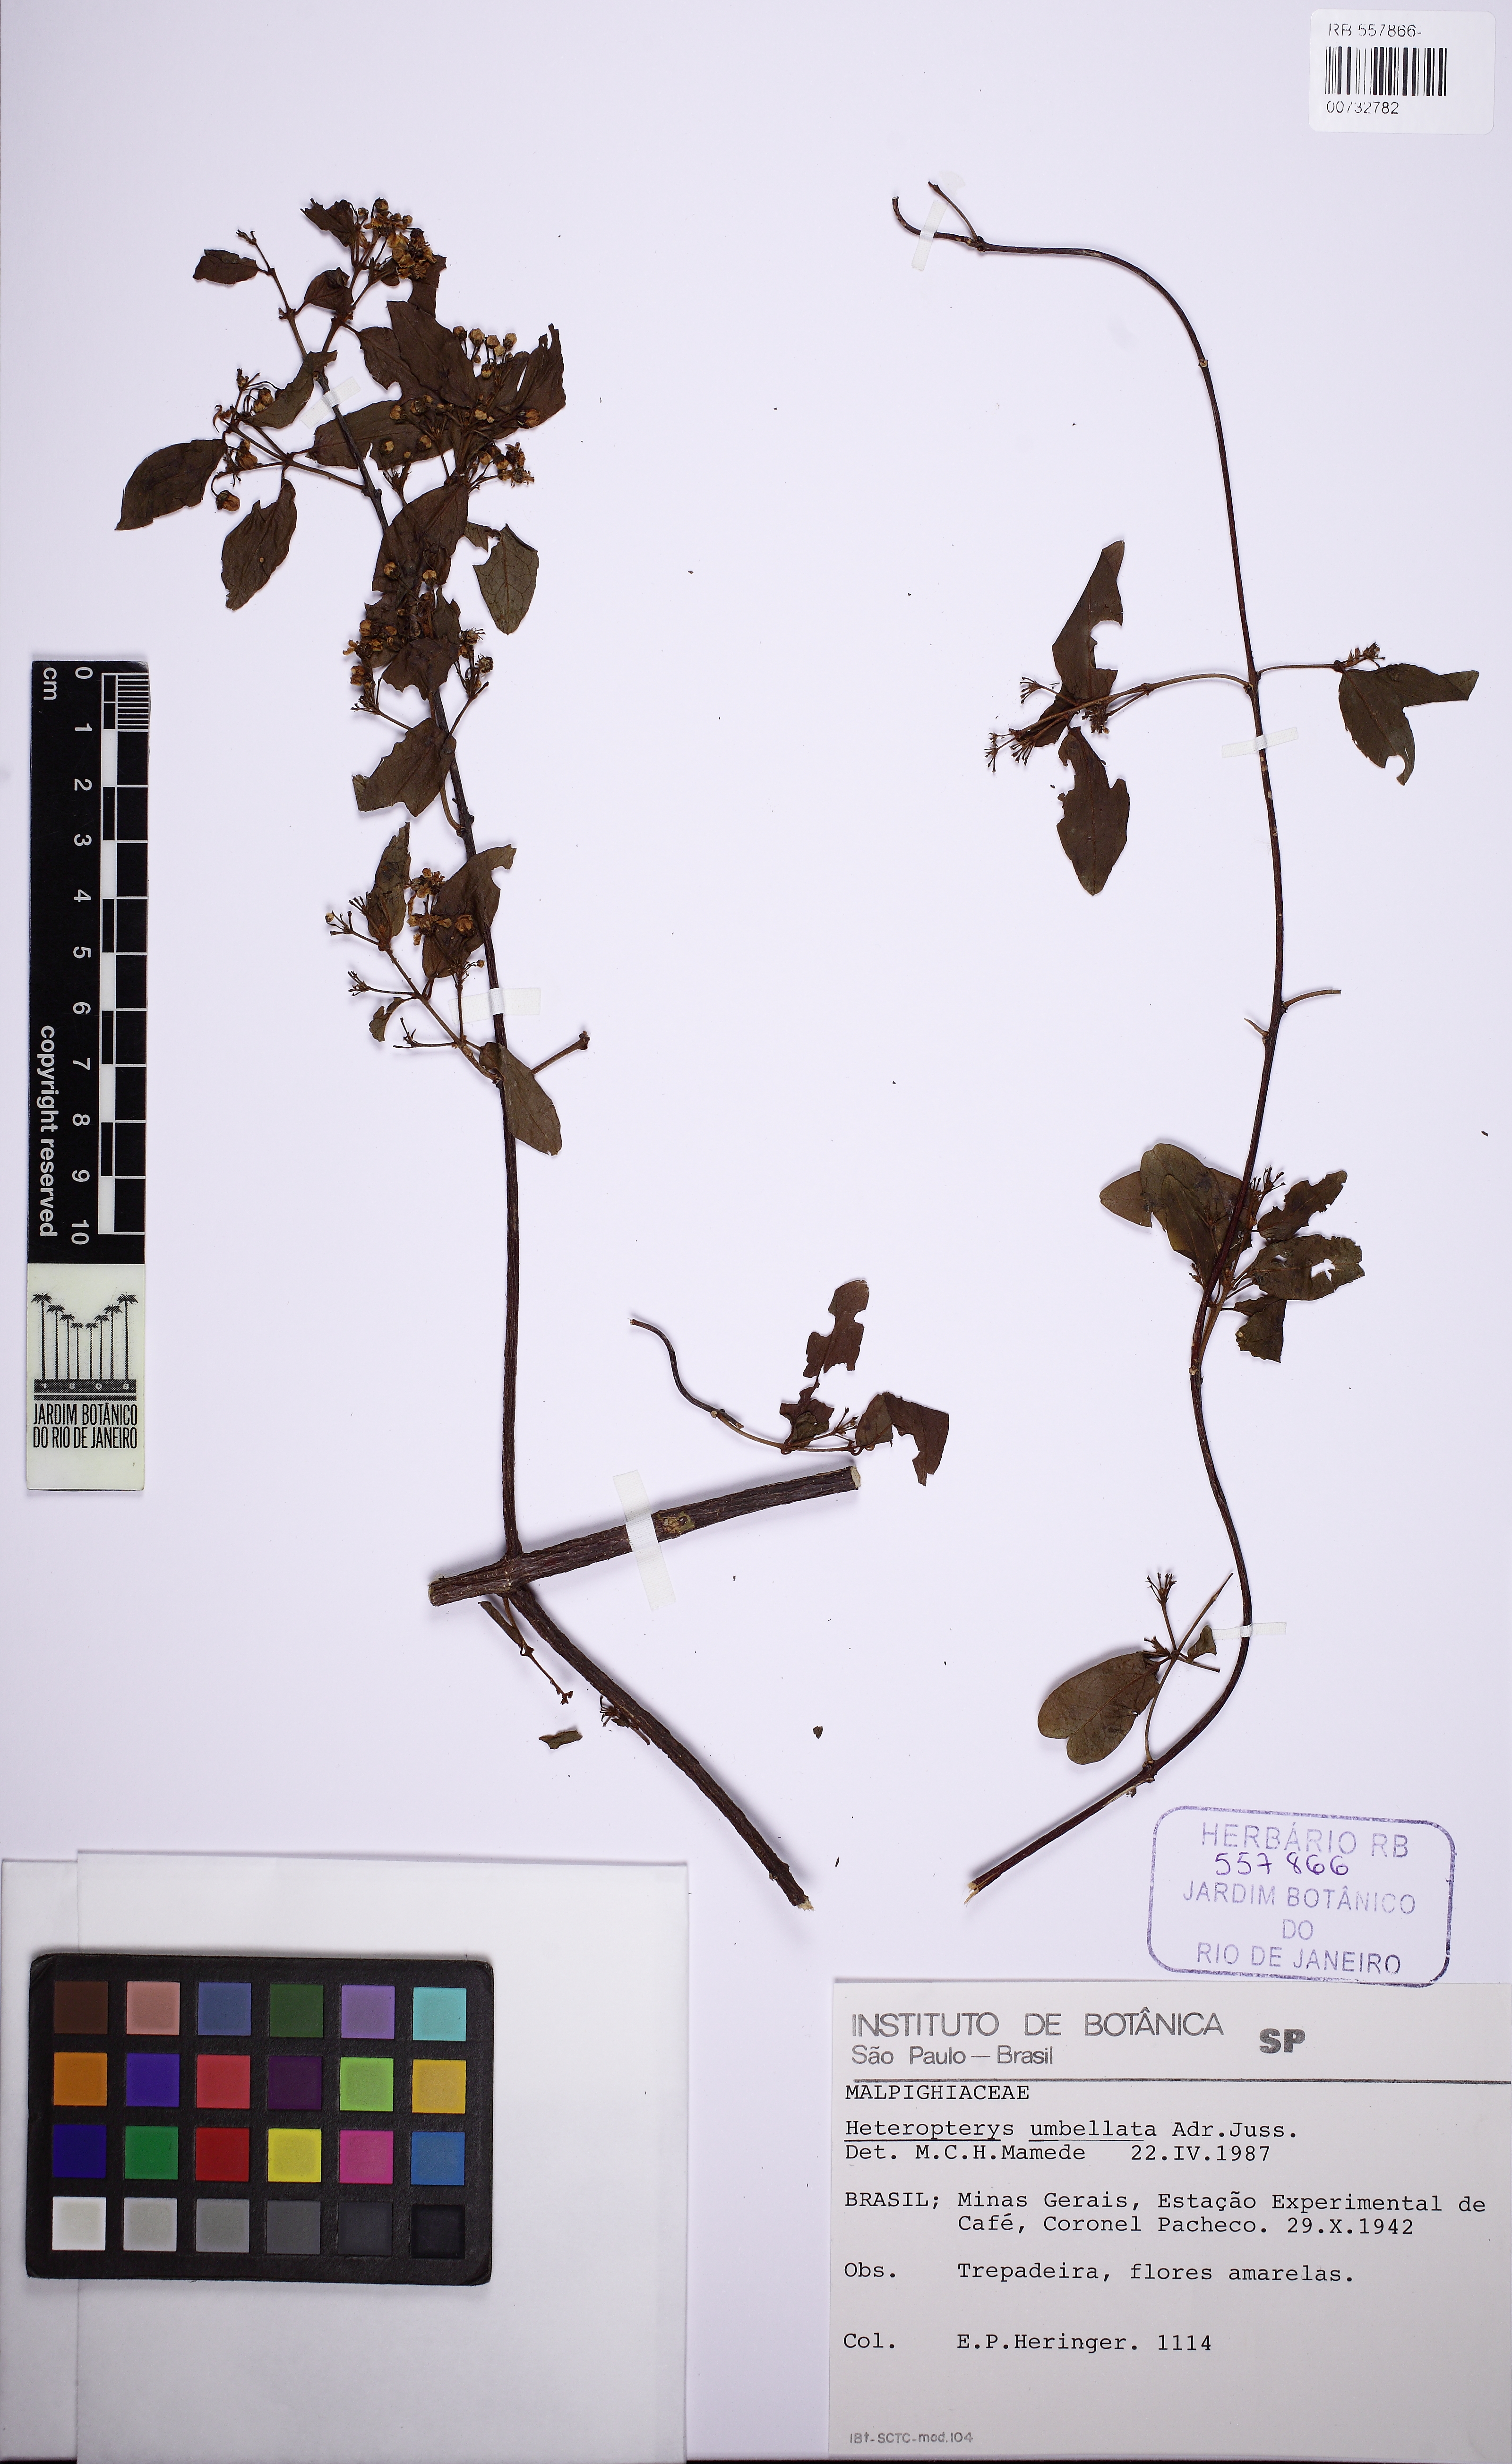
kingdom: Plantae
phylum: Tracheophyta
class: Magnoliopsida
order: Malpighiales
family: Malpighiaceae
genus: Heteropterys
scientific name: Heteropterys umbellata
